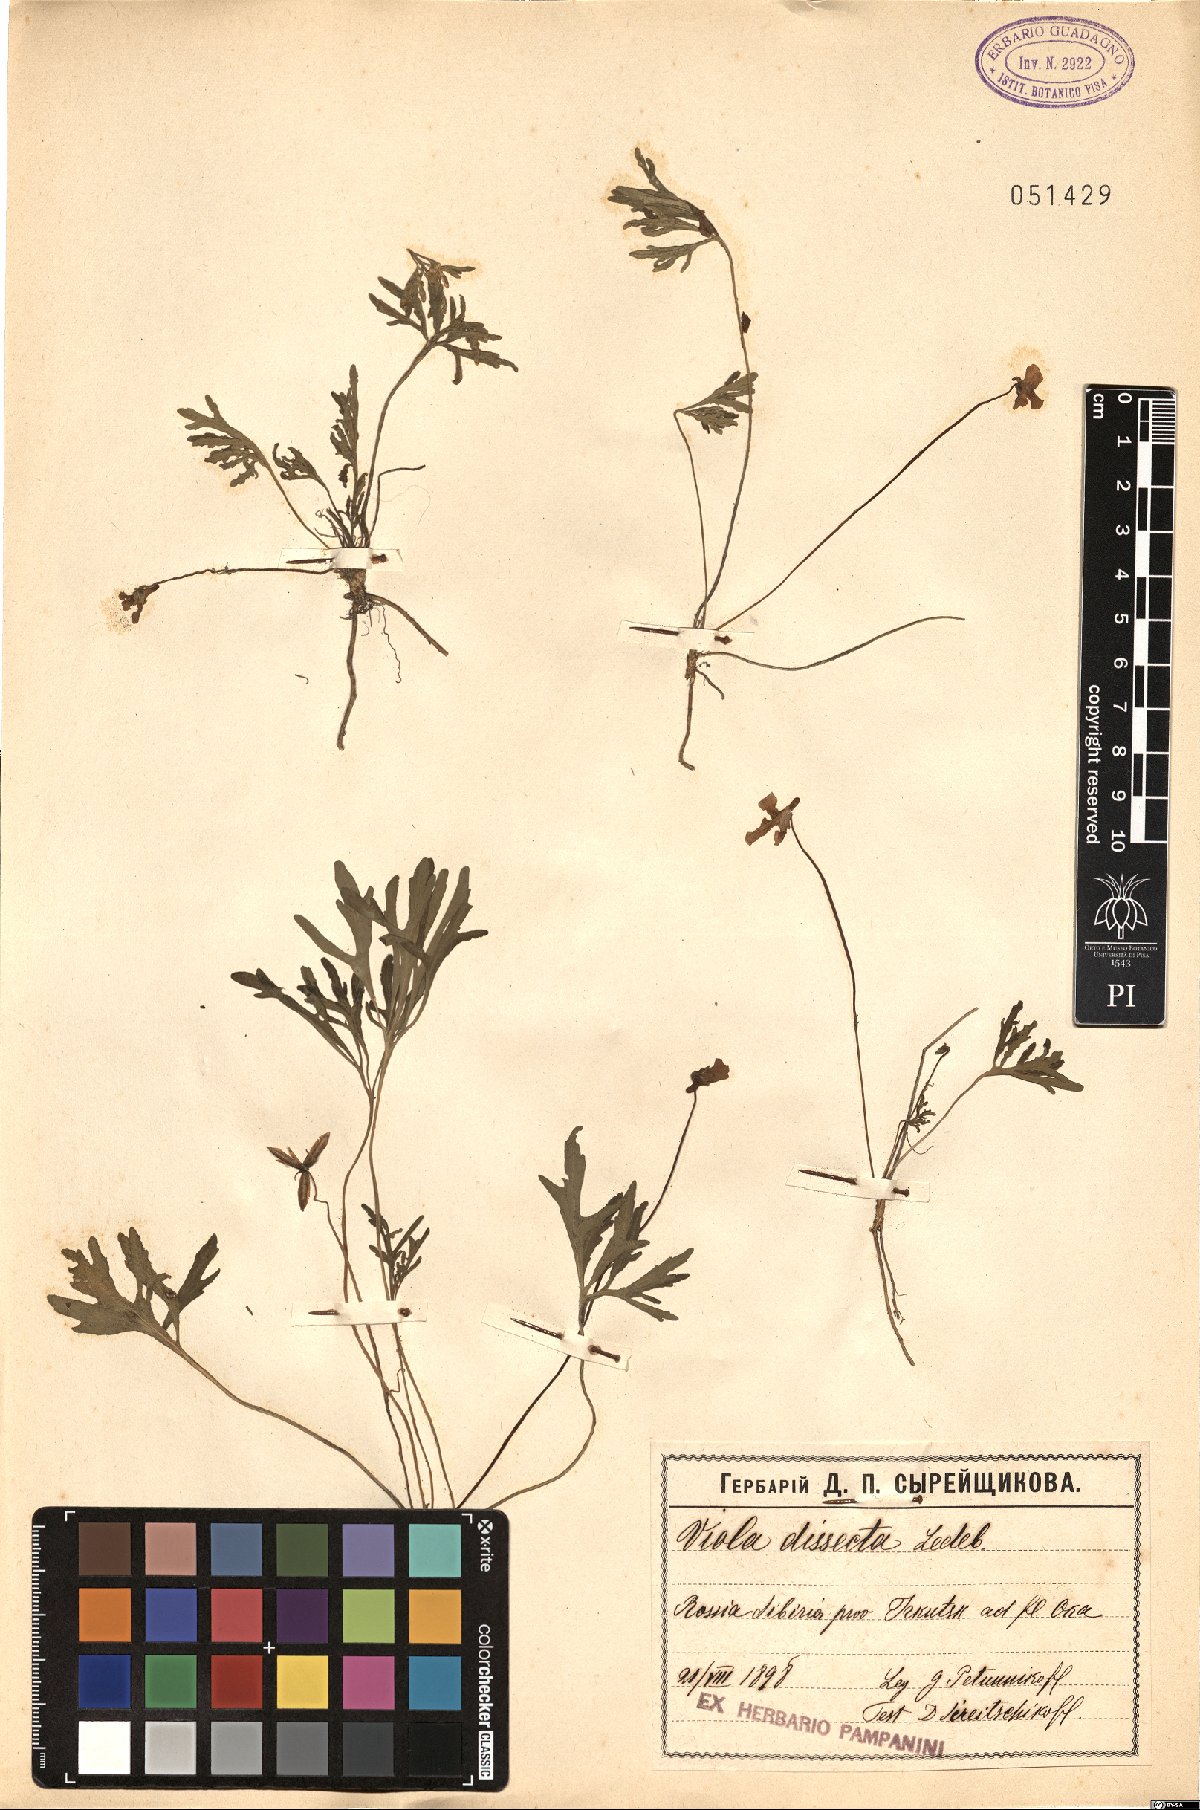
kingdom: Plantae
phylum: Tracheophyta
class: Magnoliopsida
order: Malpighiales
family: Violaceae
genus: Viola
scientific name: Viola multifida
